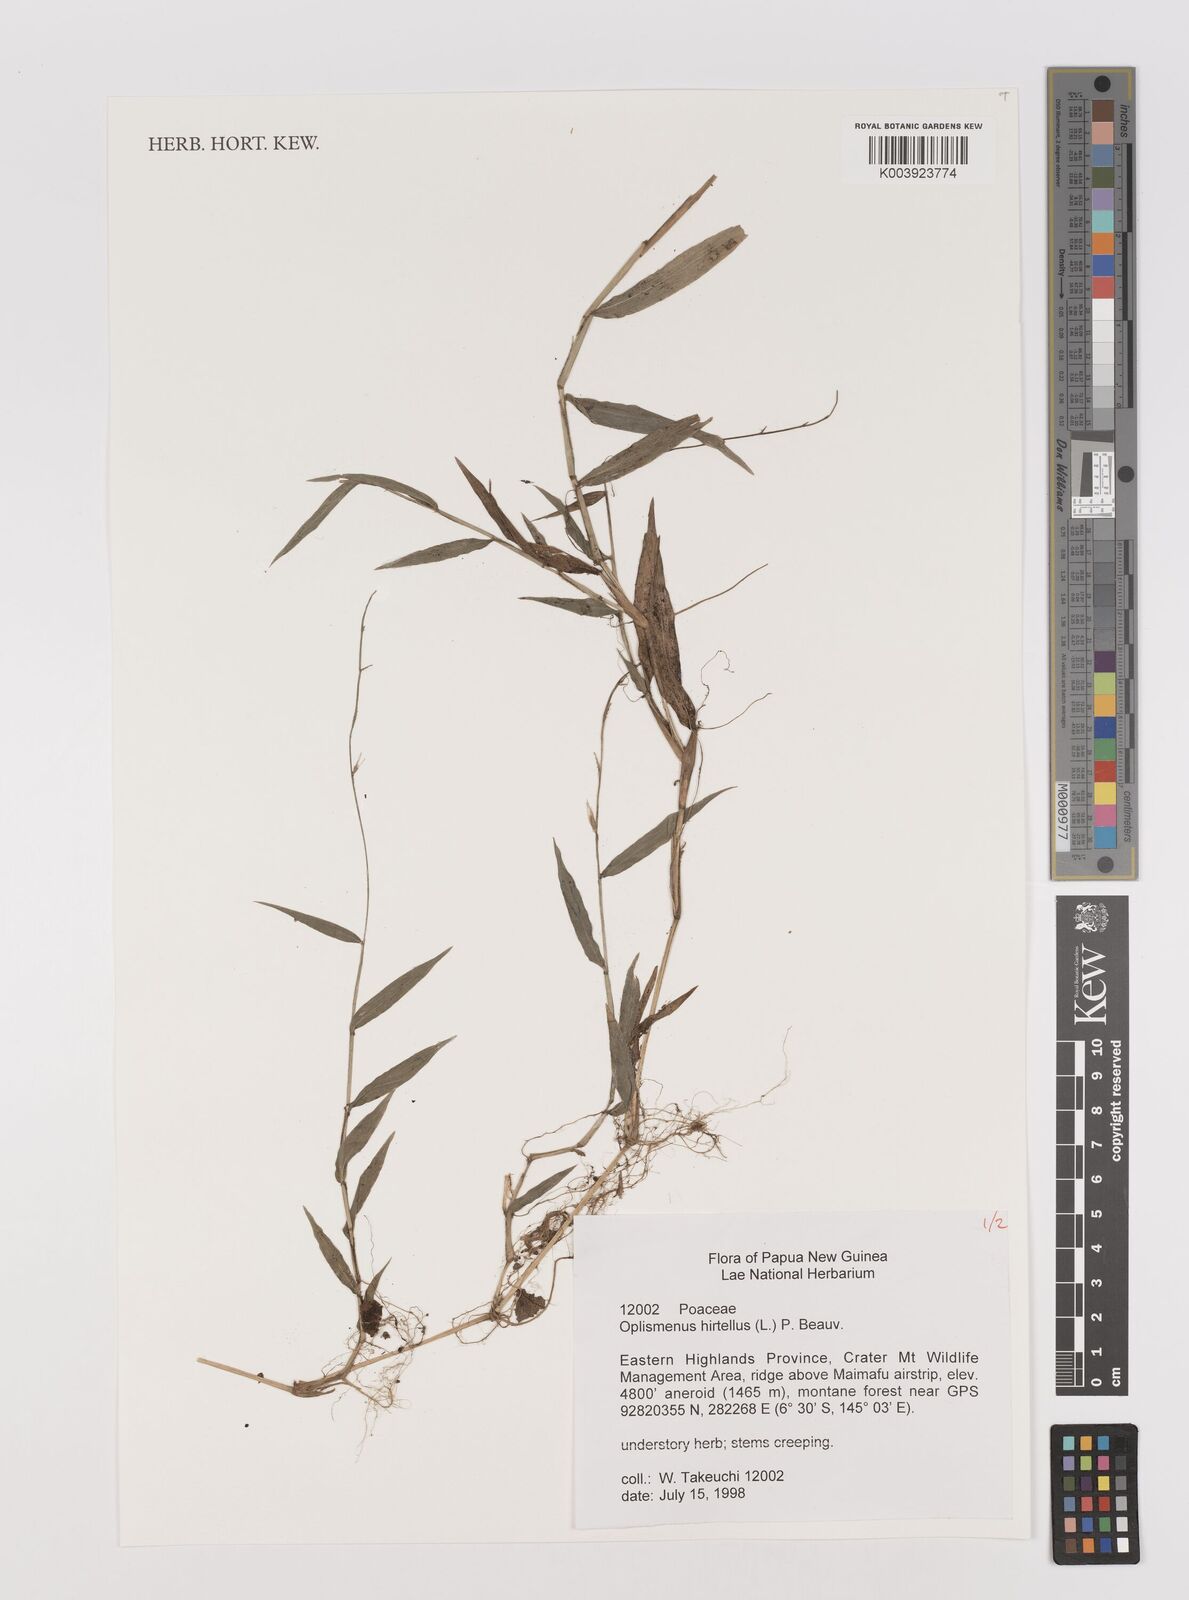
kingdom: Plantae
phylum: Tracheophyta
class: Liliopsida
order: Poales
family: Poaceae
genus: Oplismenus
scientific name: Oplismenus hirtellus
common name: Basketgrass
